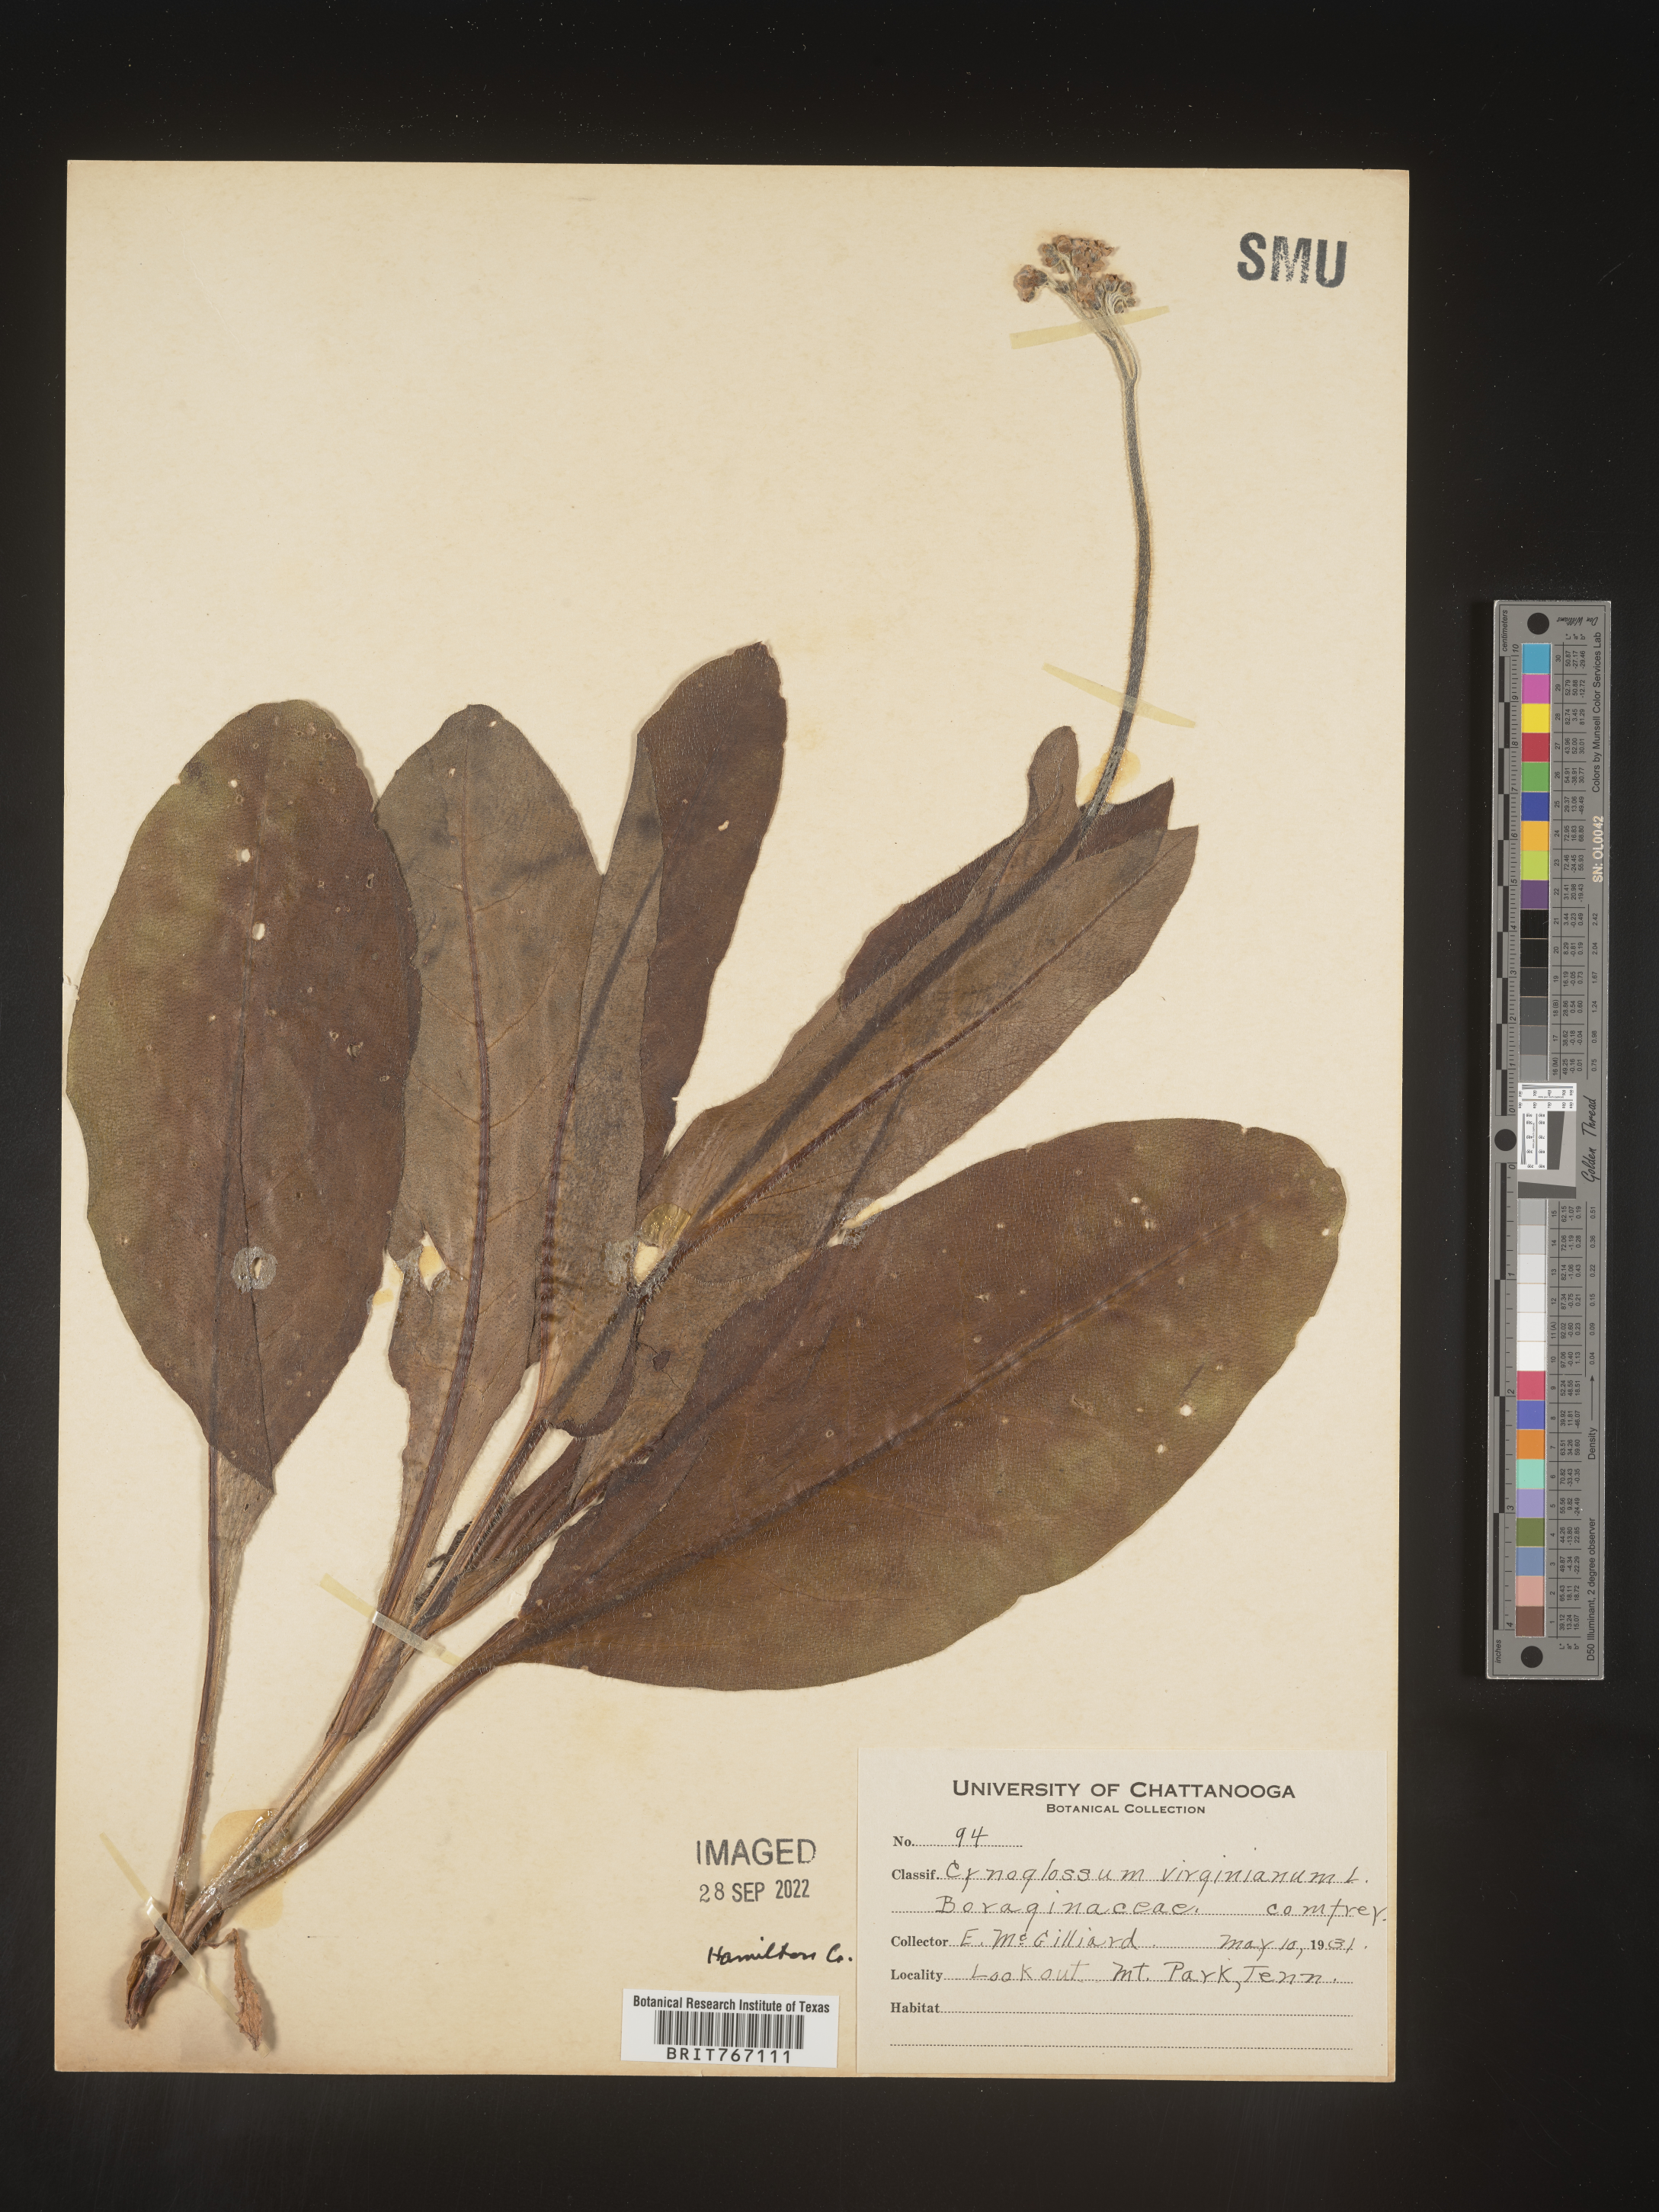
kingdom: Plantae
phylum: Tracheophyta
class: Magnoliopsida
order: Boraginales
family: Boraginaceae
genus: Andersonglossum
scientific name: Andersonglossum virginianum
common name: Wild comfrey
